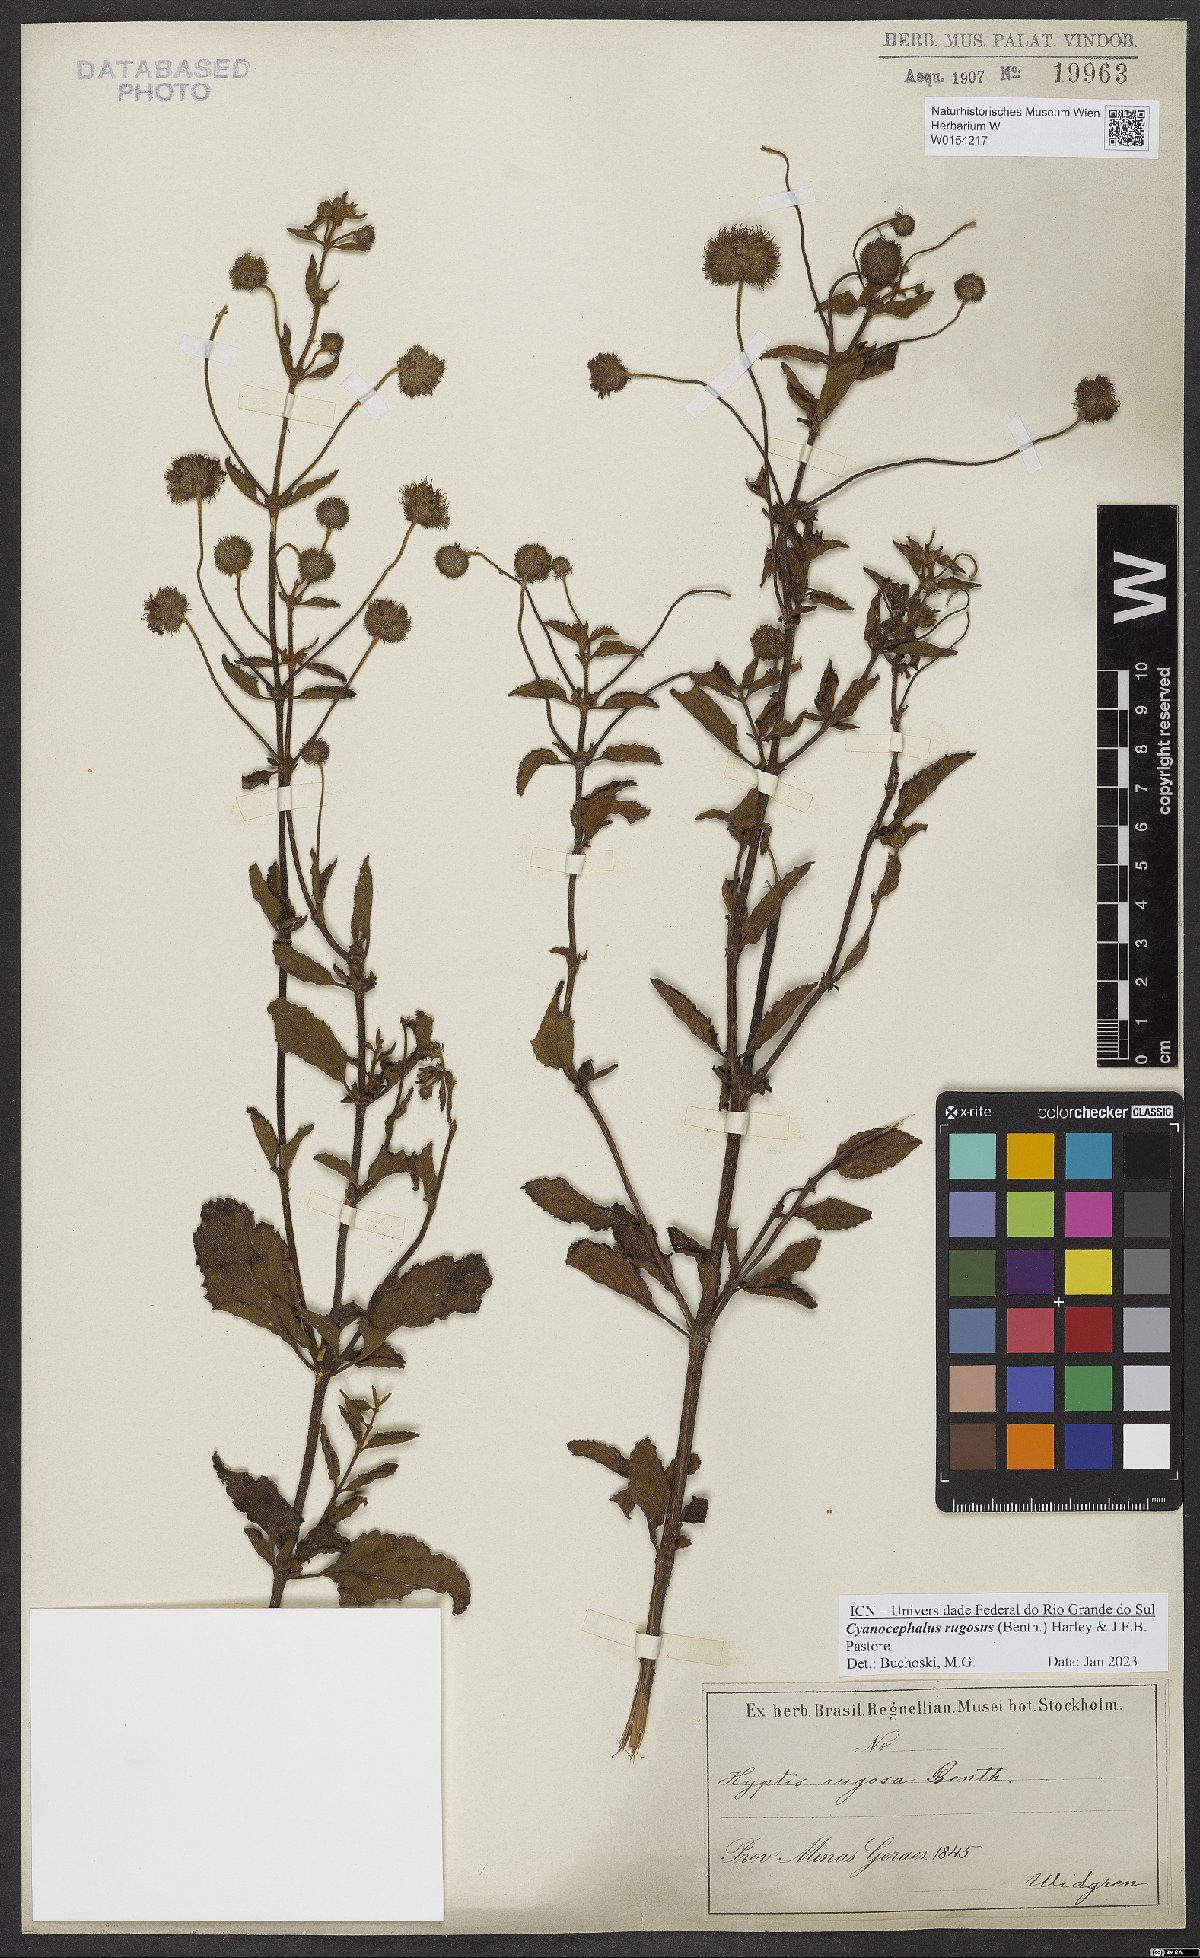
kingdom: Plantae
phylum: Tracheophyta
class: Magnoliopsida
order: Lamiales
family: Lamiaceae
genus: Cyanocephalus
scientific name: Cyanocephalus rugosus
